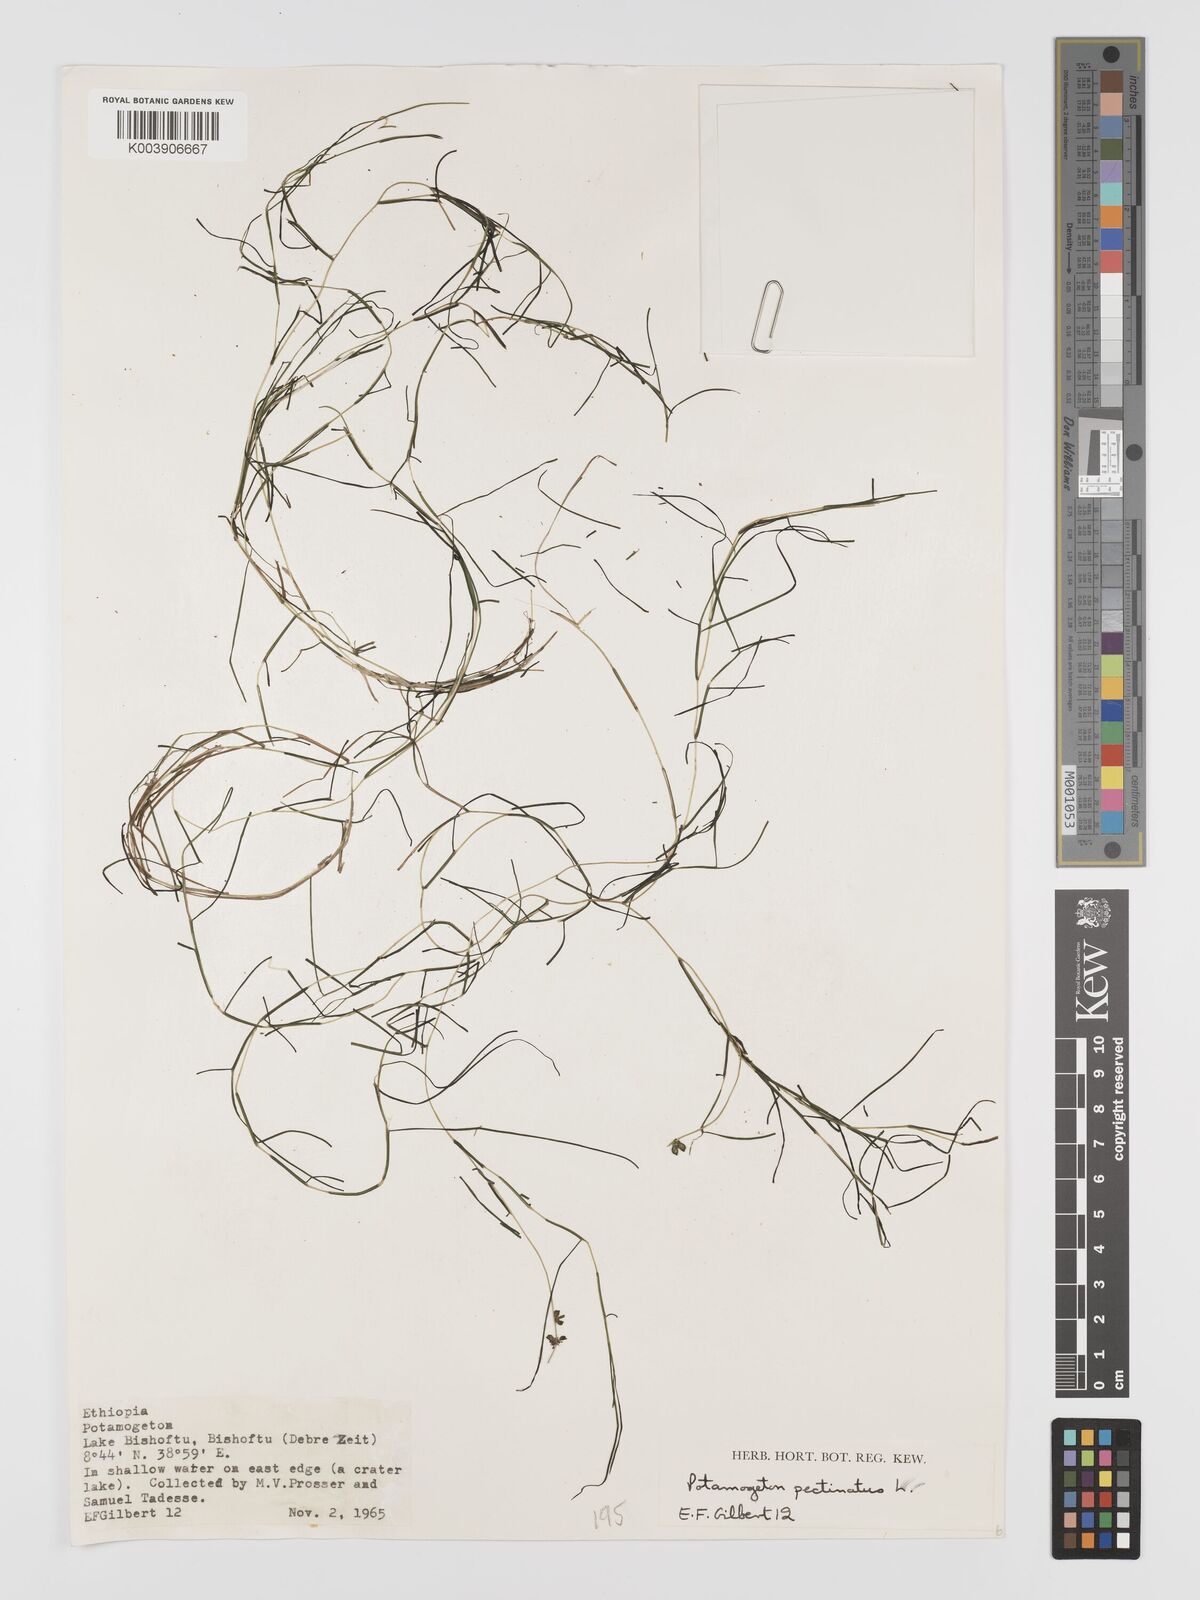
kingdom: Plantae
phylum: Tracheophyta
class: Liliopsida
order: Alismatales
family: Potamogetonaceae
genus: Stuckenia
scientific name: Stuckenia pectinata
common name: Sago pondweed
